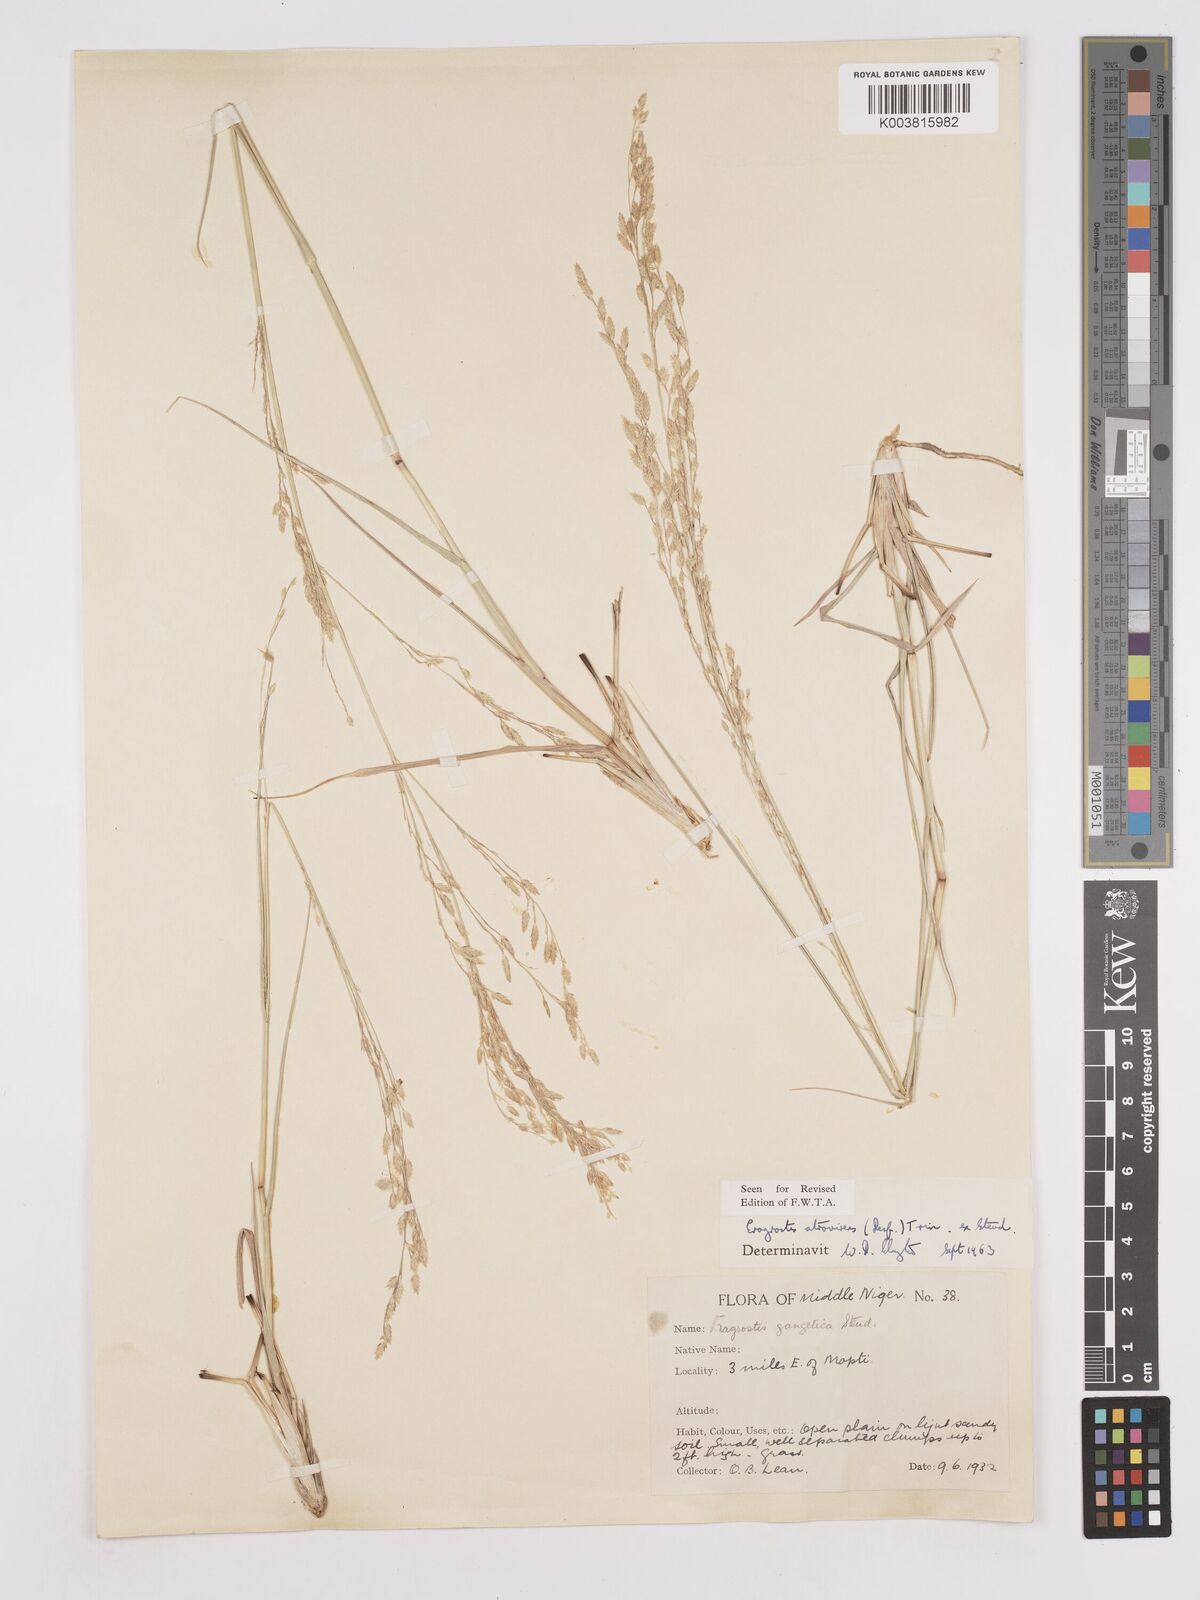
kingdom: Plantae
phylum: Tracheophyta
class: Liliopsida
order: Poales
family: Poaceae
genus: Eragrostis
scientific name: Eragrostis atrovirens
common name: Thalia lovegrass
